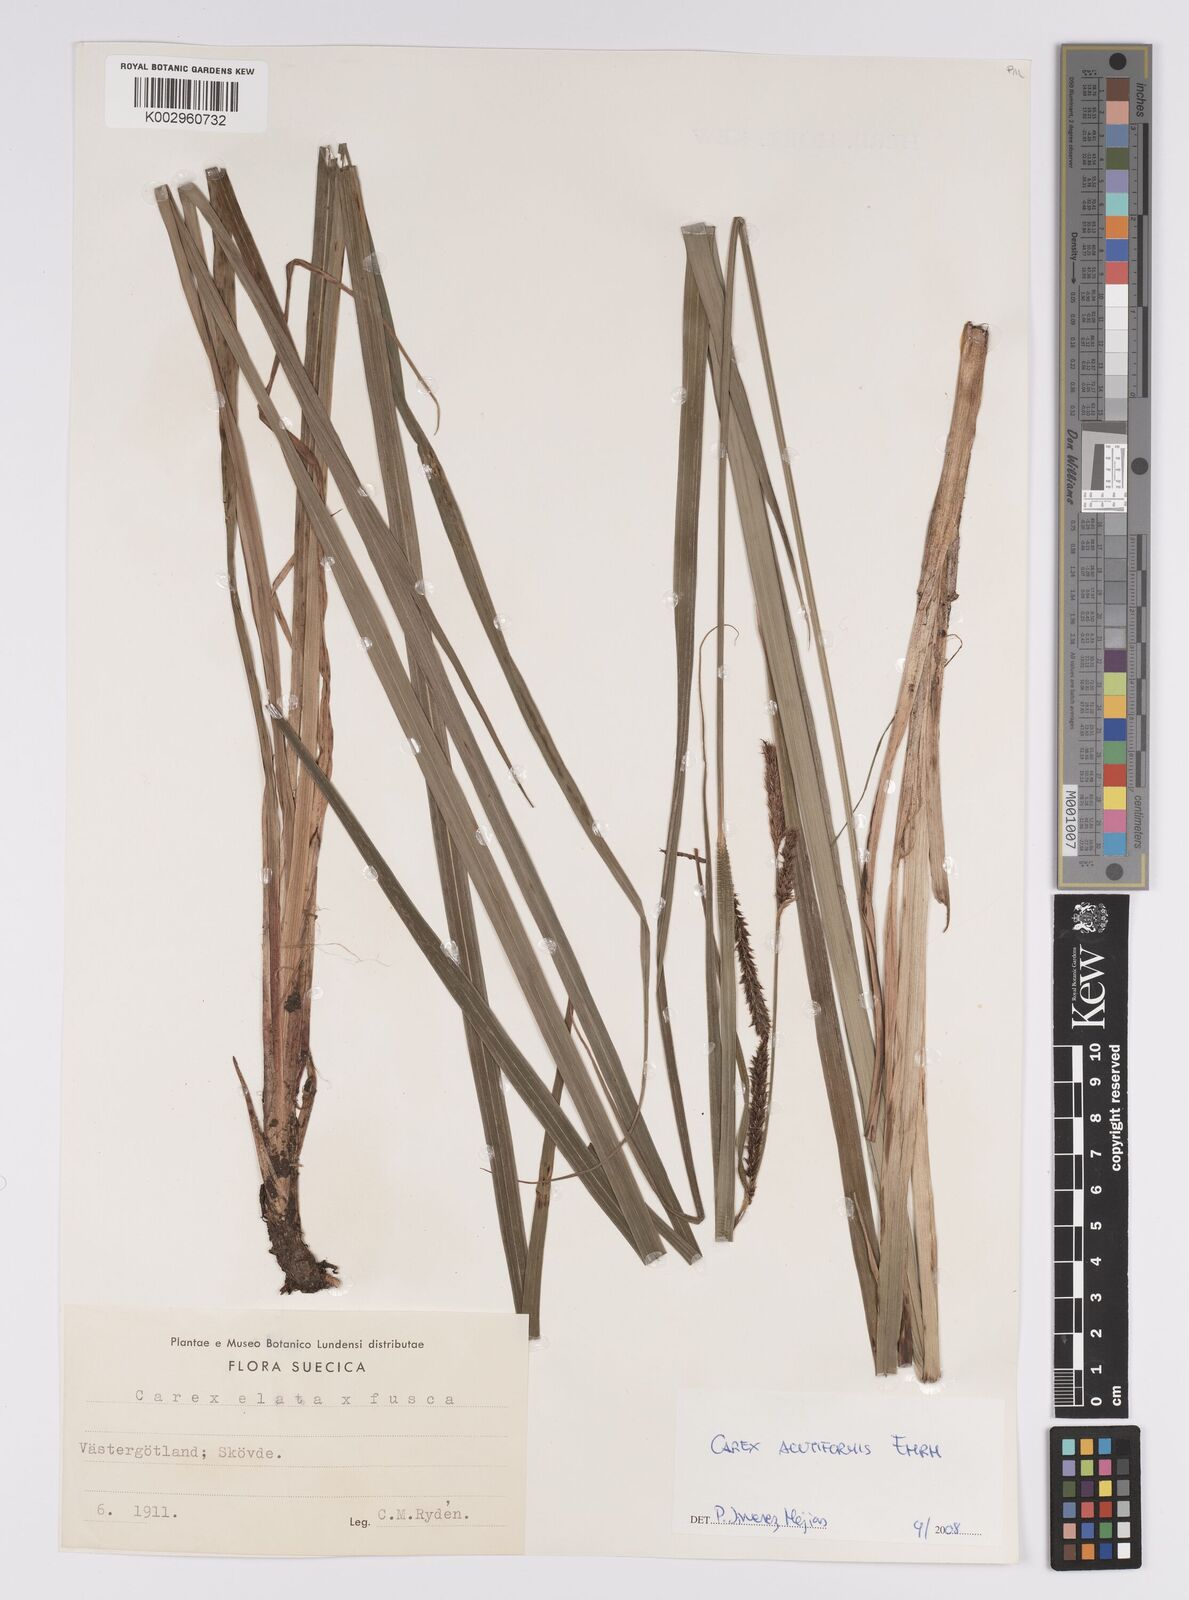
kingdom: Plantae
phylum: Tracheophyta
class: Liliopsida
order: Poales
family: Cyperaceae
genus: Carex
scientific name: Carex acutiformis
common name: Lesser pond-sedge
